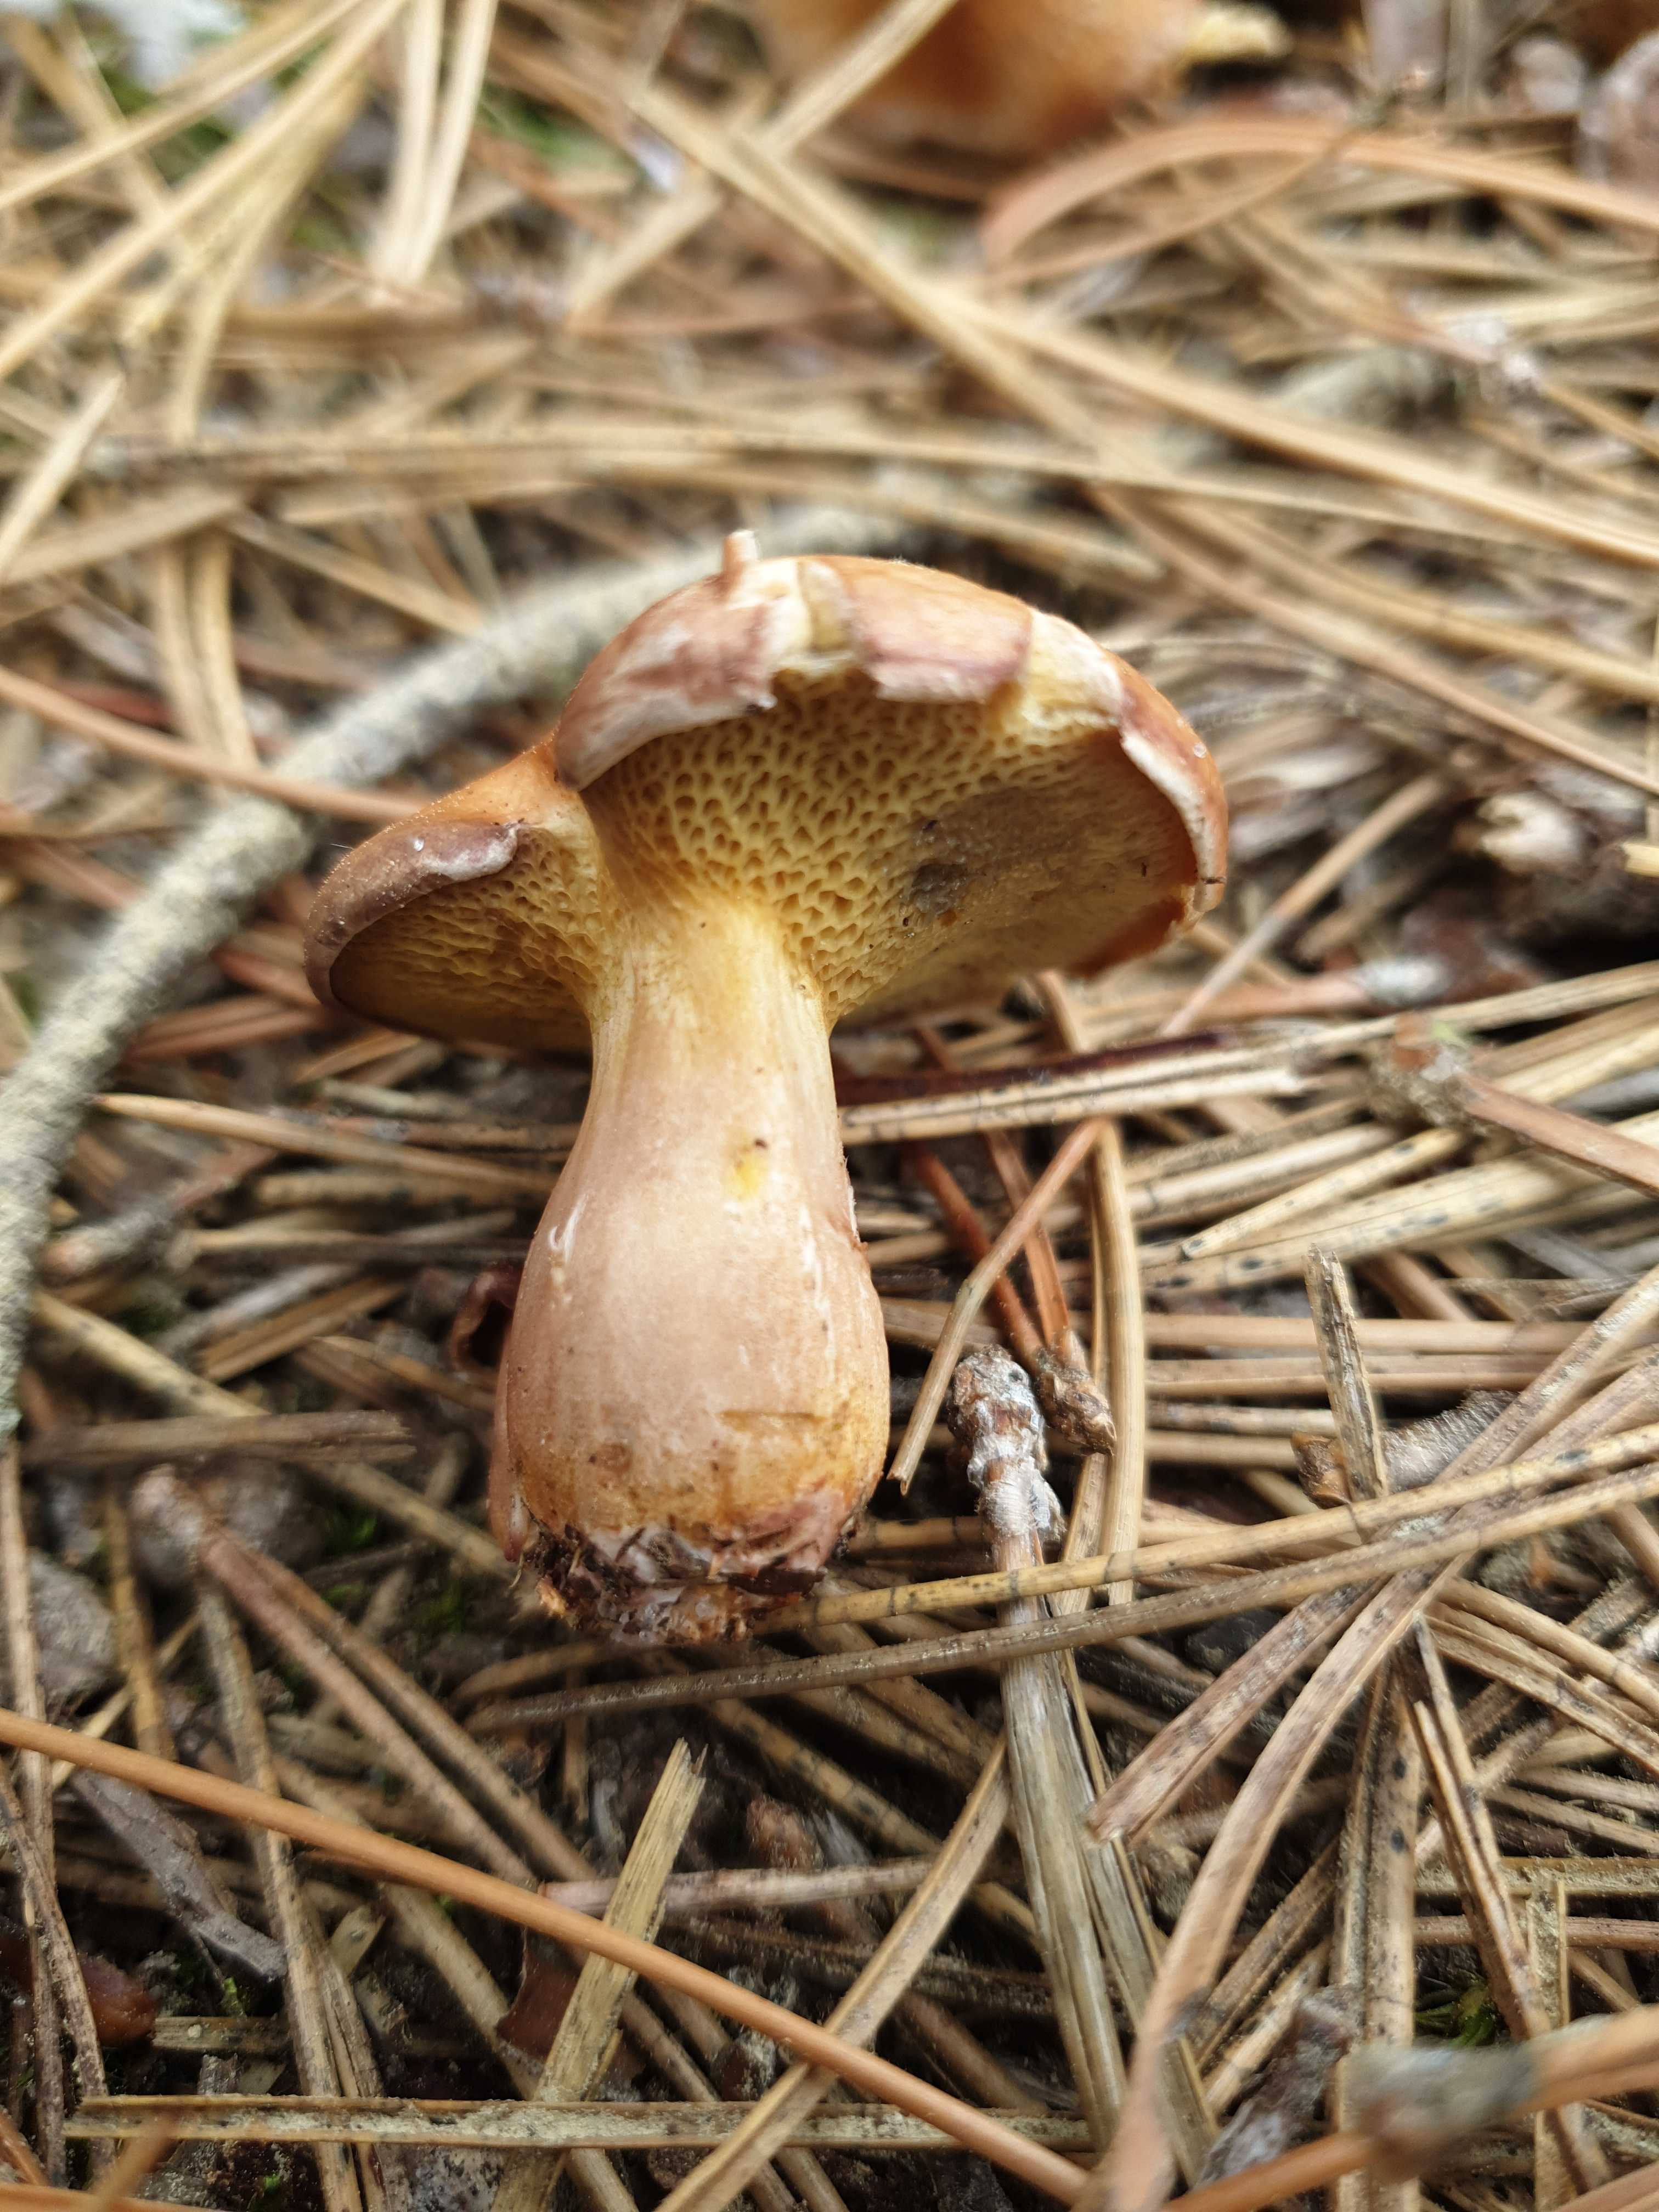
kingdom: Fungi
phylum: Basidiomycota
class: Agaricomycetes
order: Boletales
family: Suillaceae
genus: Suillus
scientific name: Suillus bovinus
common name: grovporet slimrørhat
